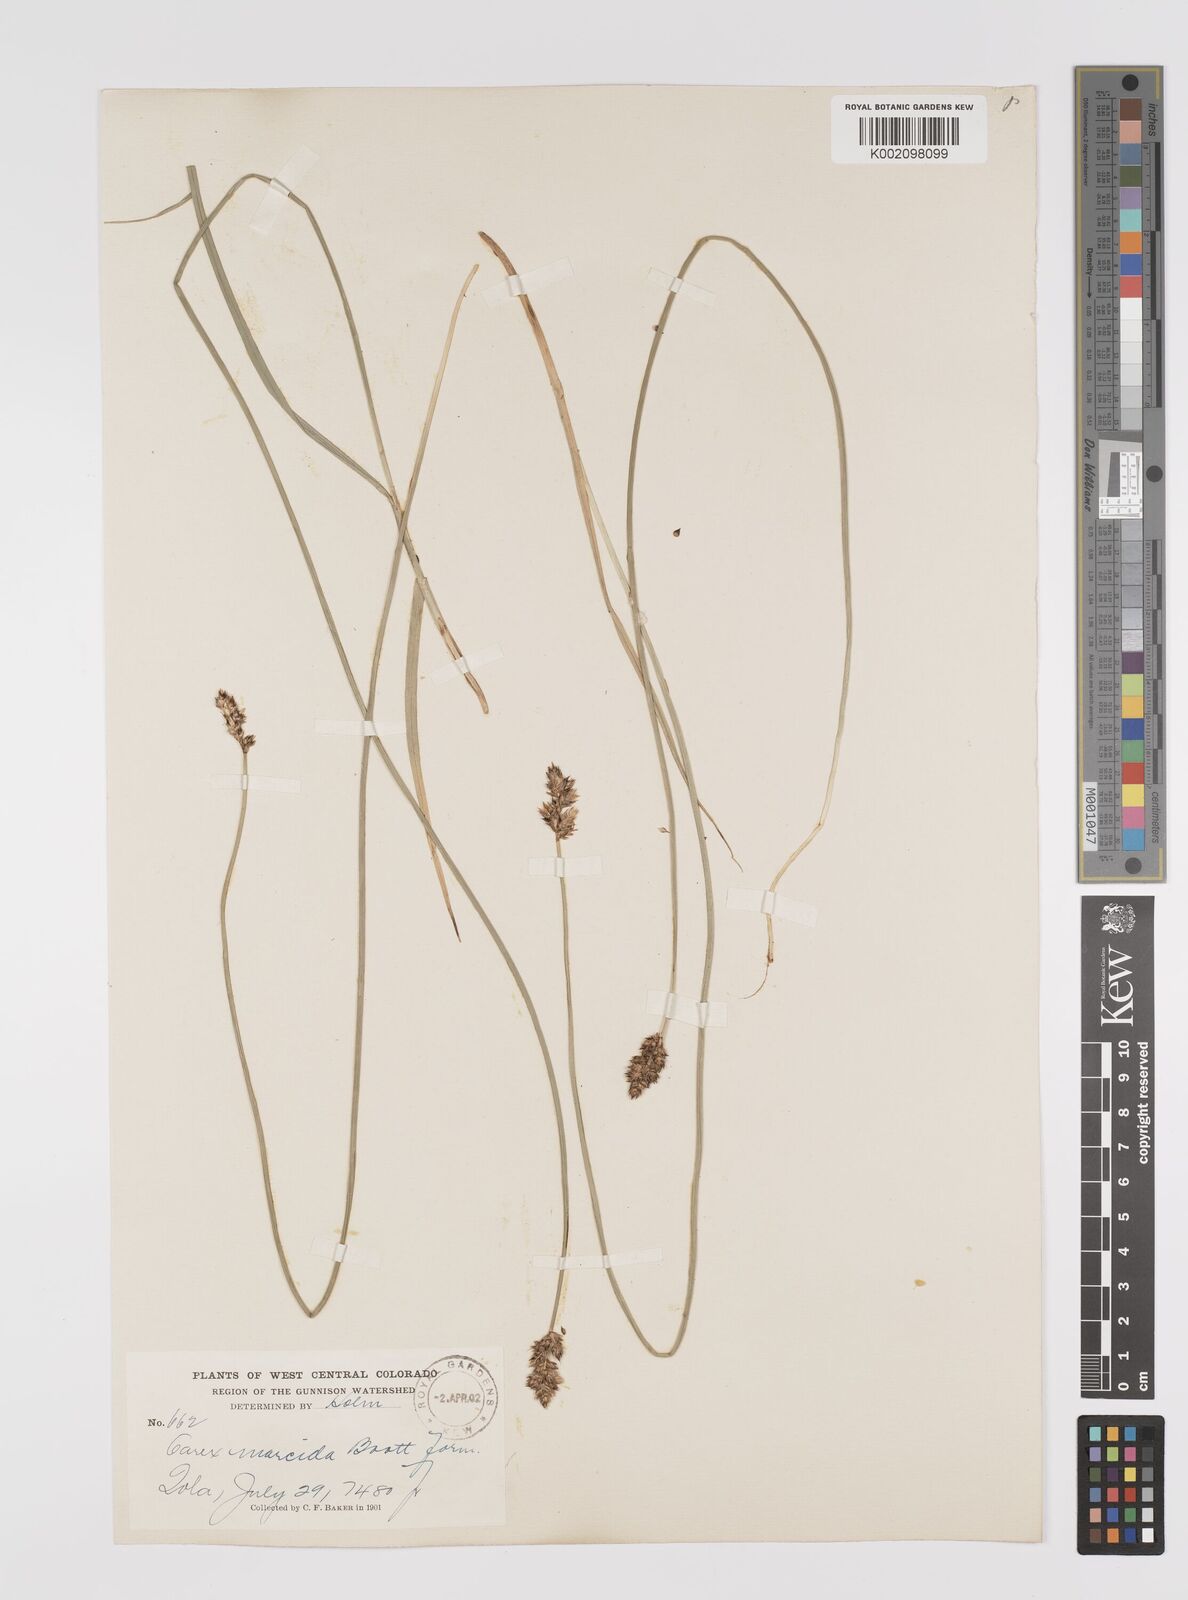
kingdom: Plantae
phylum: Tracheophyta
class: Liliopsida
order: Poales
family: Cyperaceae
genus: Carex
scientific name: Carex praegracilis
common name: Black creeper sedge
